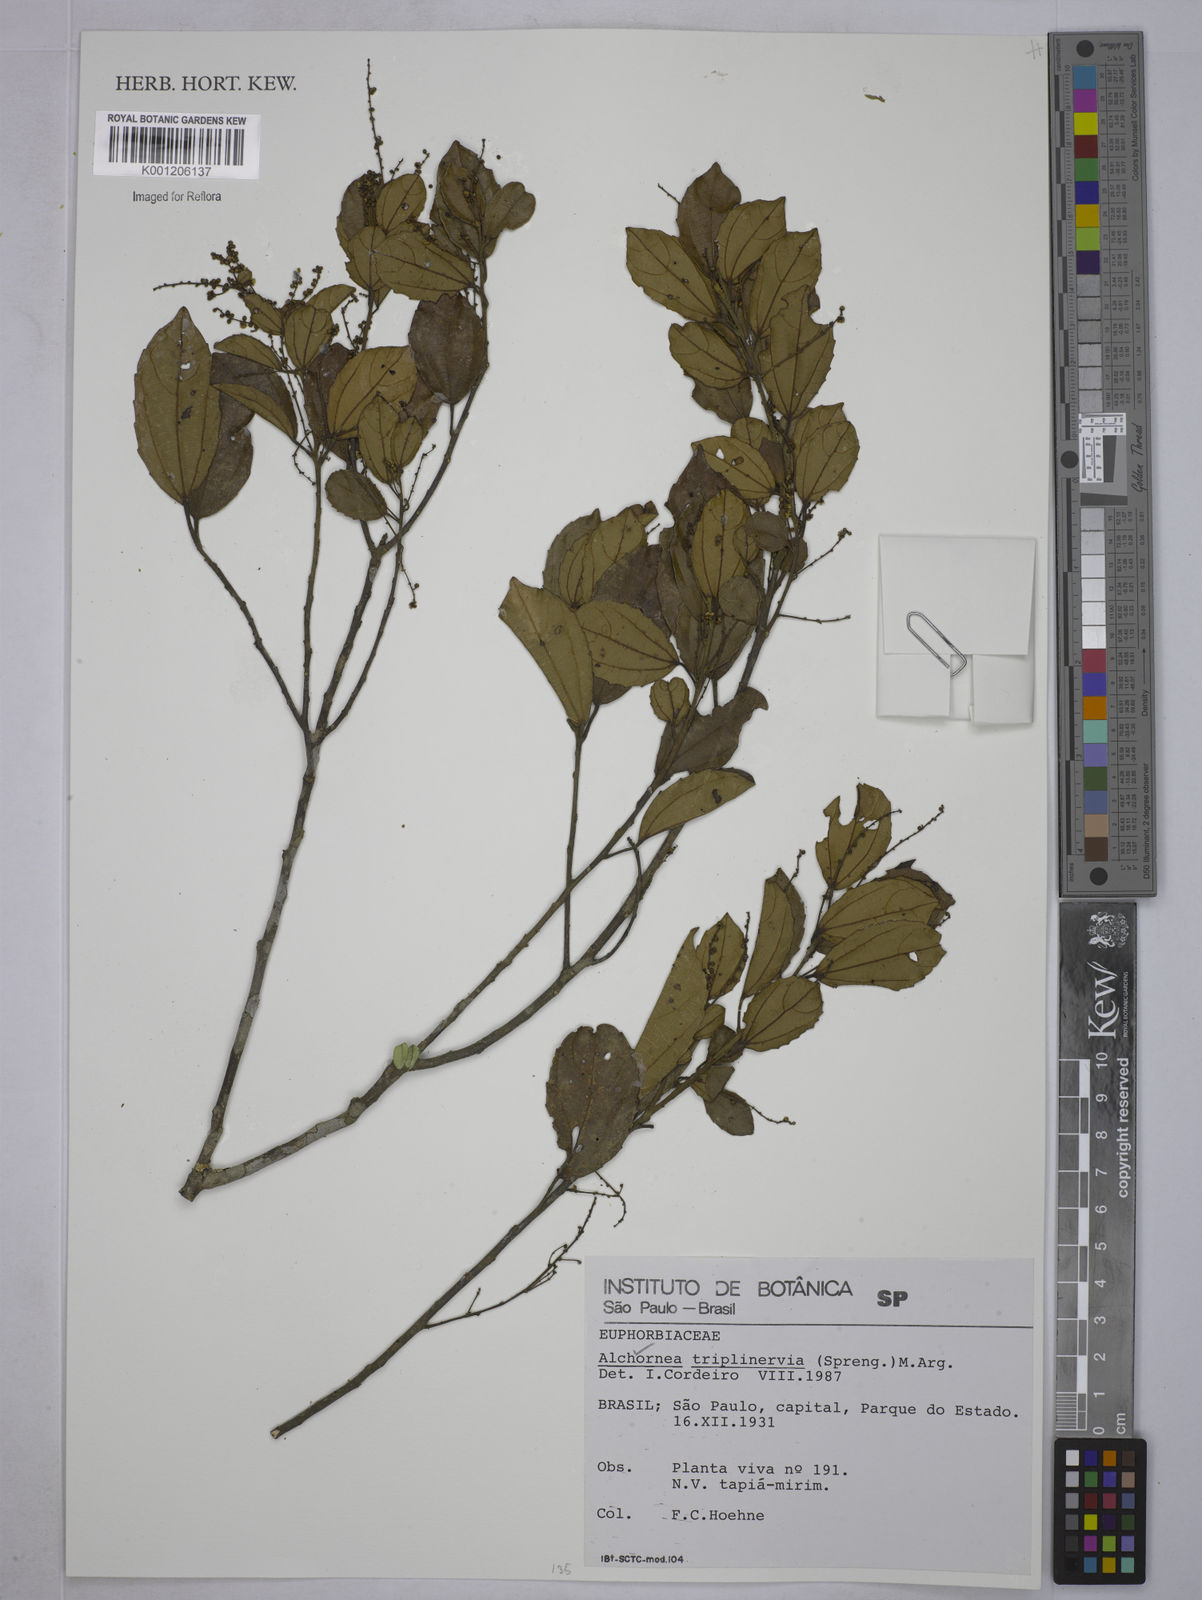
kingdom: Plantae
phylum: Tracheophyta
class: Magnoliopsida
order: Malpighiales
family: Euphorbiaceae
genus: Alchornea
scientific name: Alchornea
